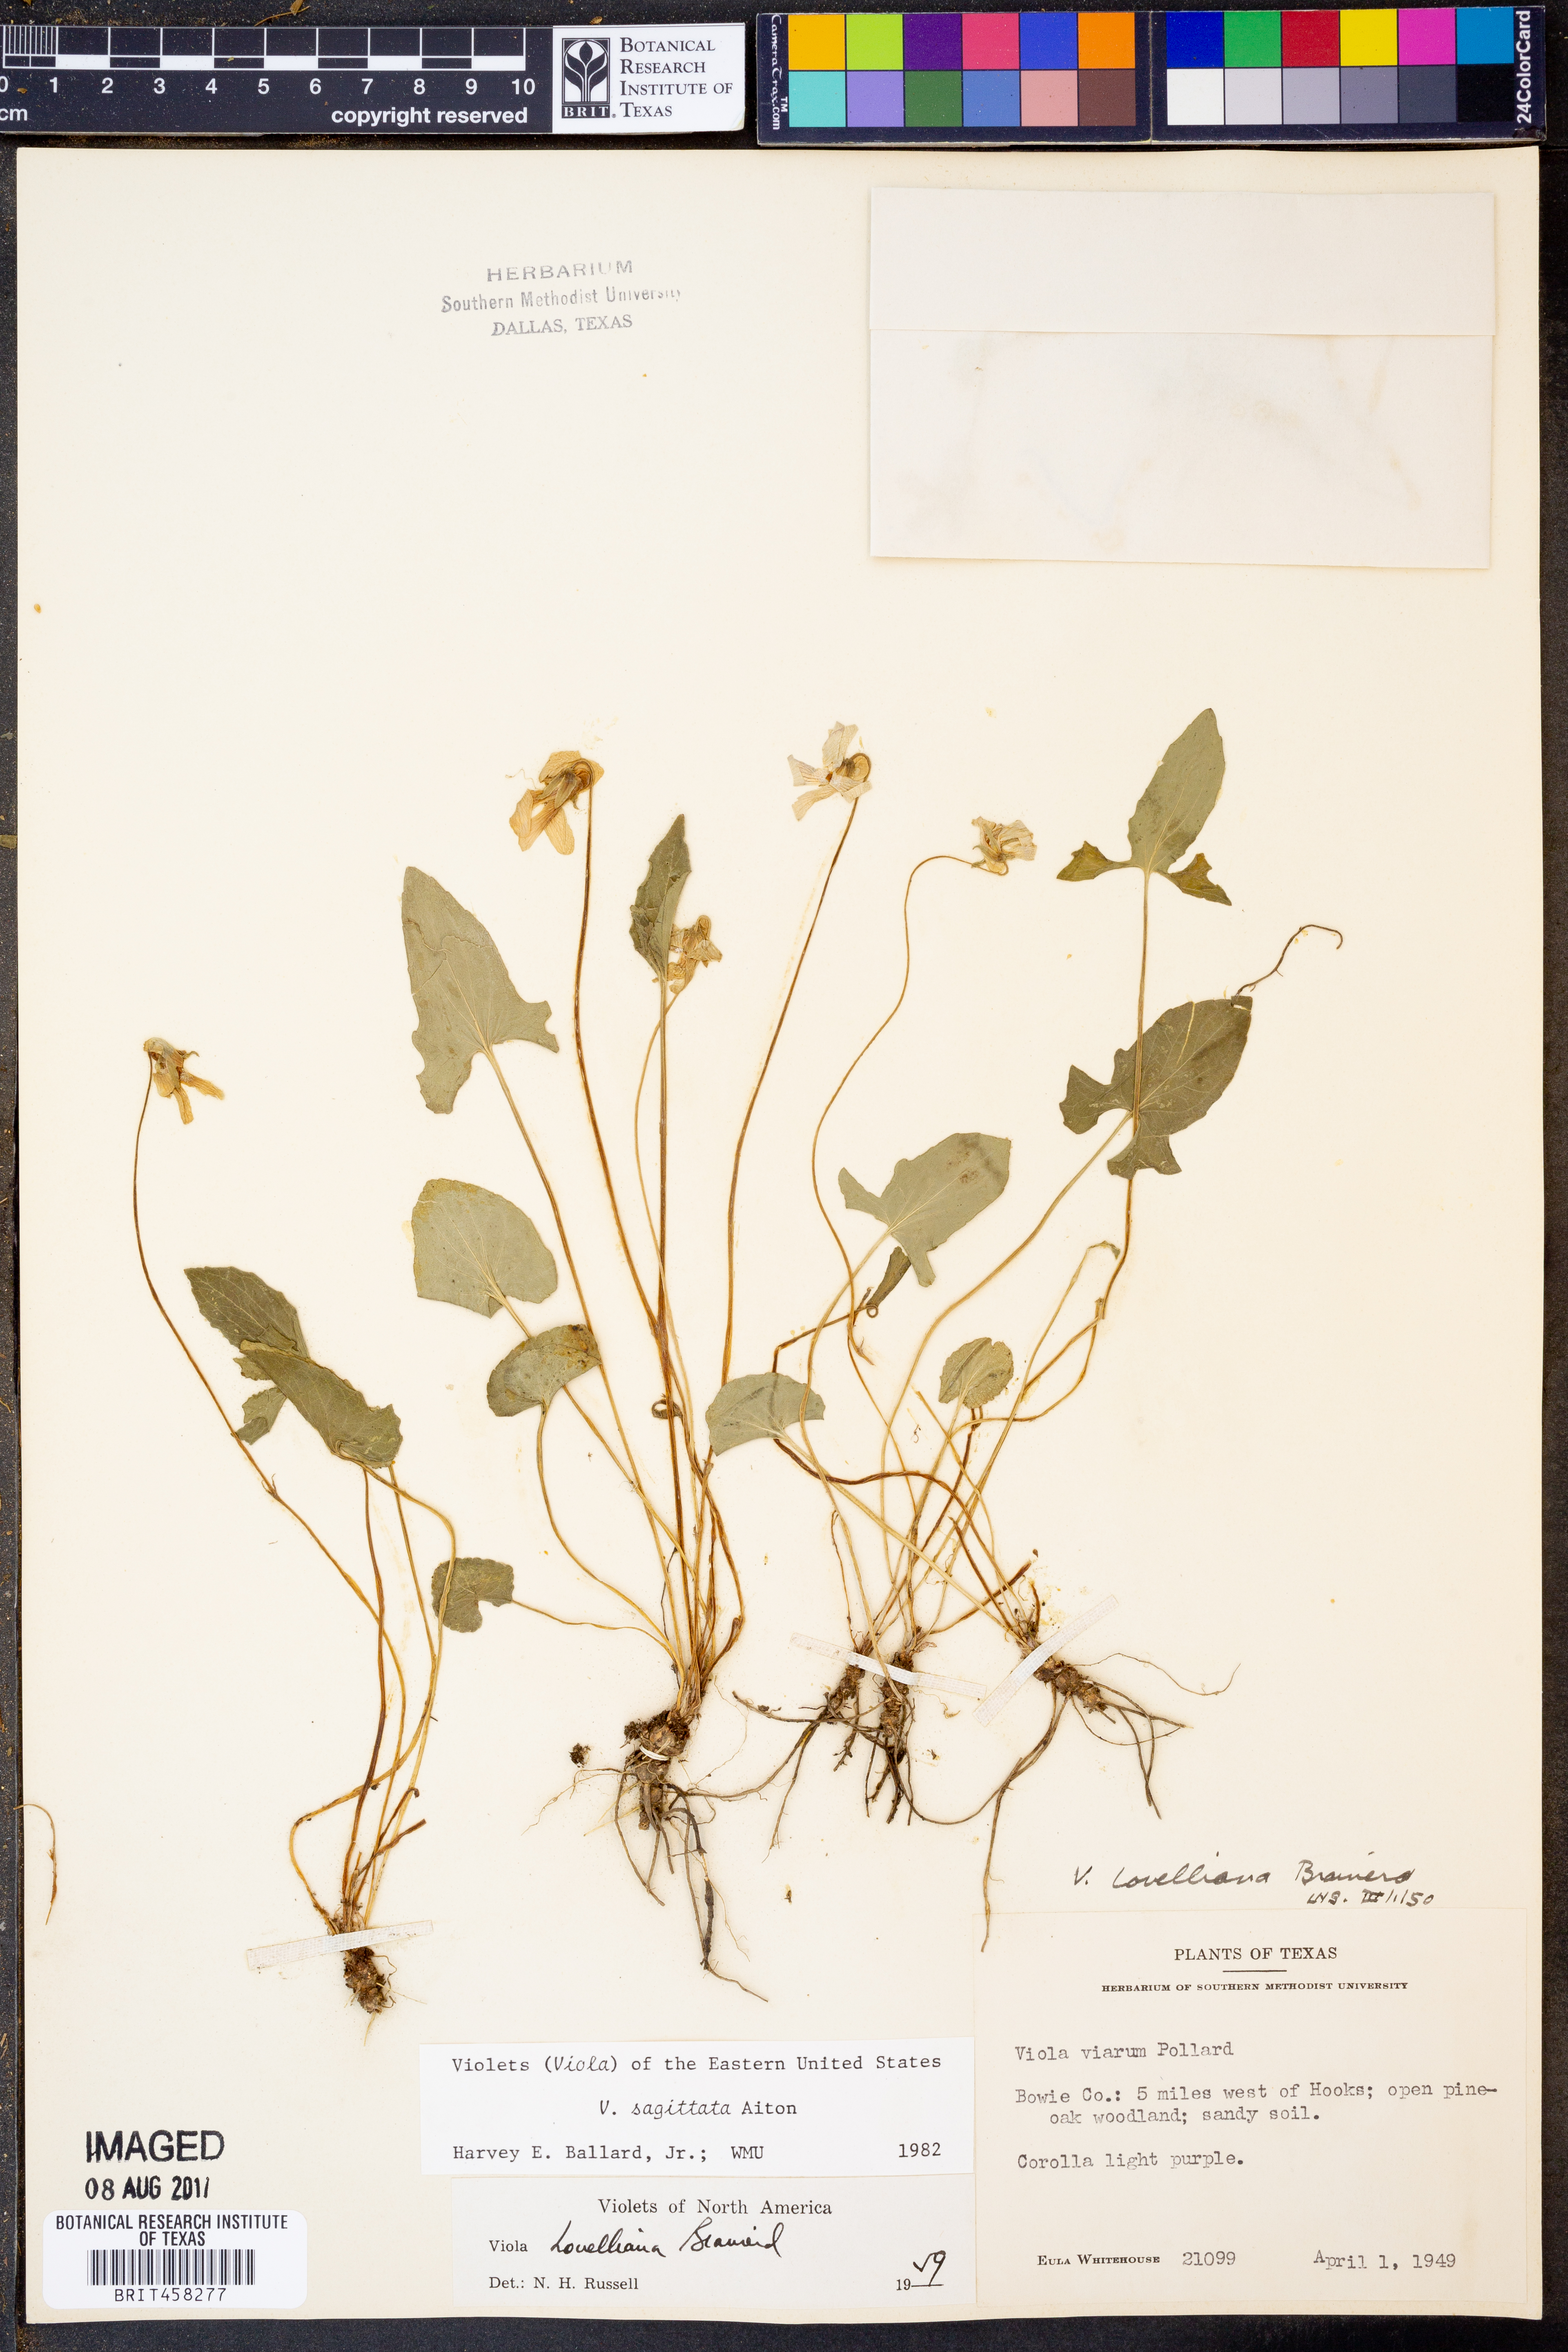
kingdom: Plantae
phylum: Tracheophyta
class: Magnoliopsida
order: Malpighiales
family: Violaceae
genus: Viola
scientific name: Viola sagittata
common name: Arrowhead violet
